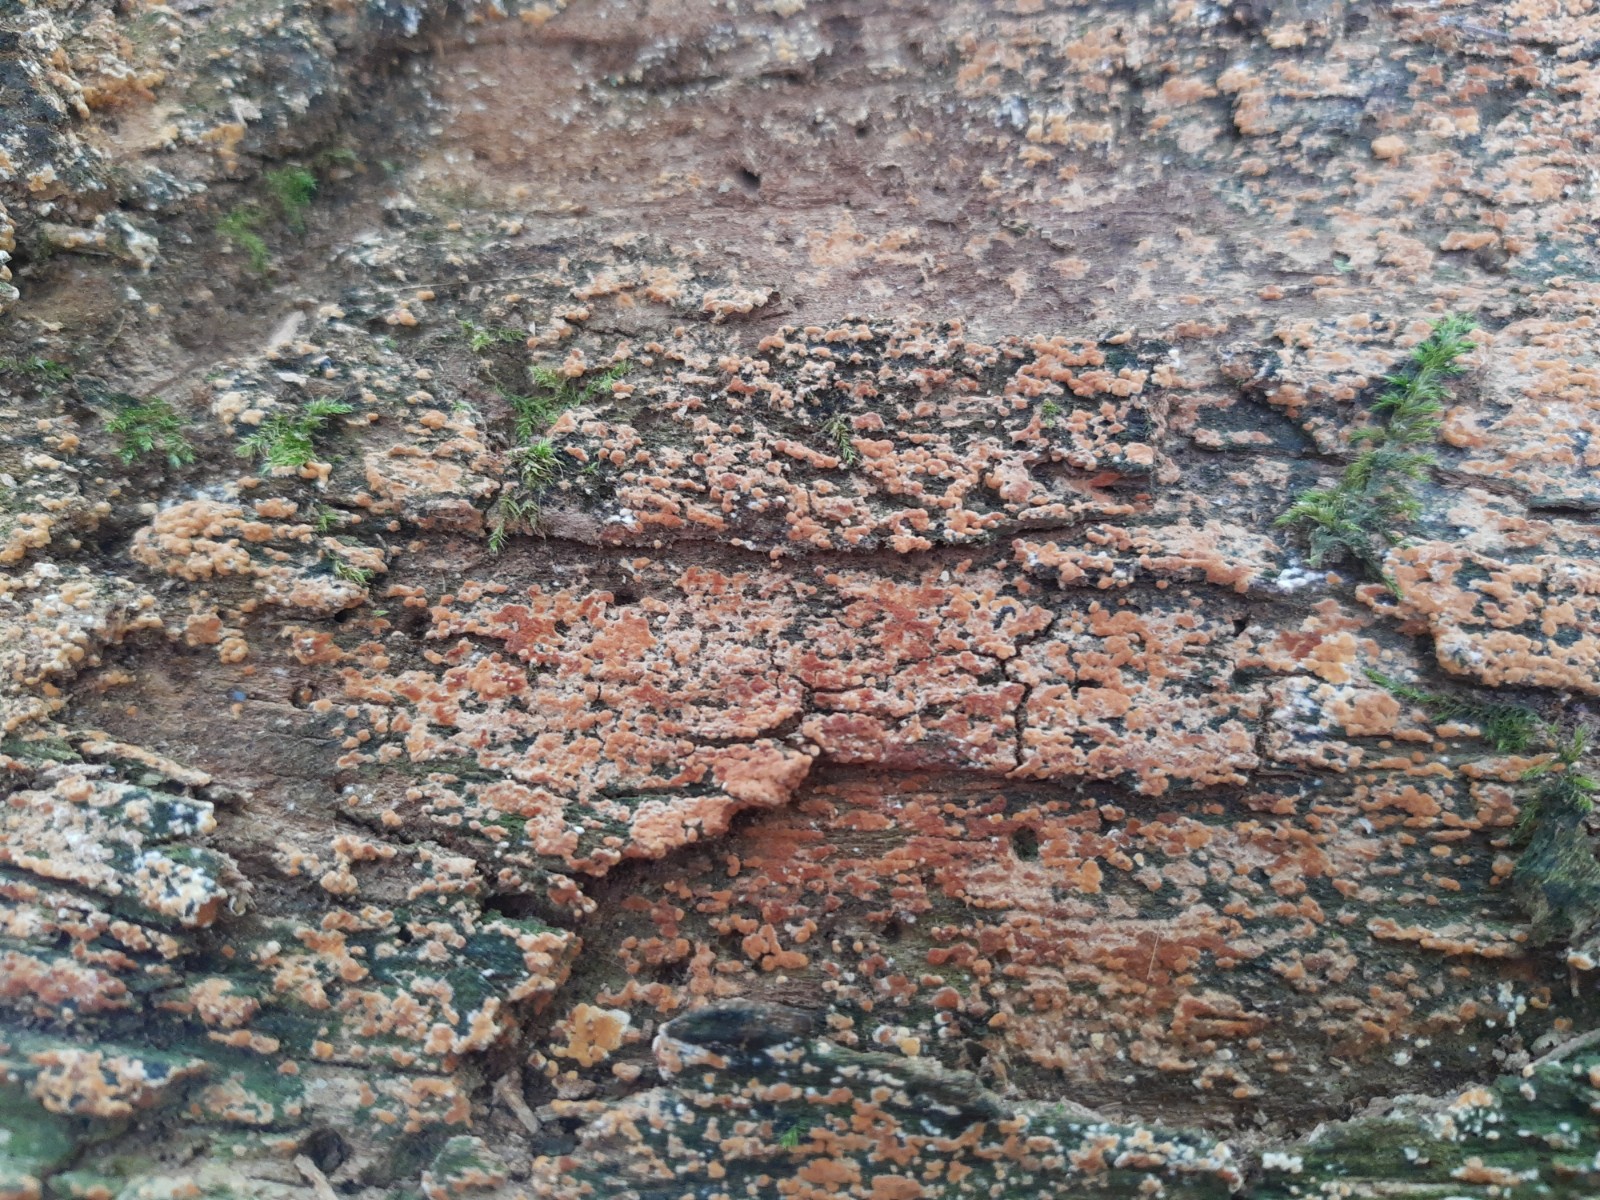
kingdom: Fungi
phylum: Basidiomycota
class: Agaricomycetes
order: Cantharellales
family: Botryobasidiaceae
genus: Botryobasidium
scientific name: Botryobasidium aureum
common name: gylden spindhinde
